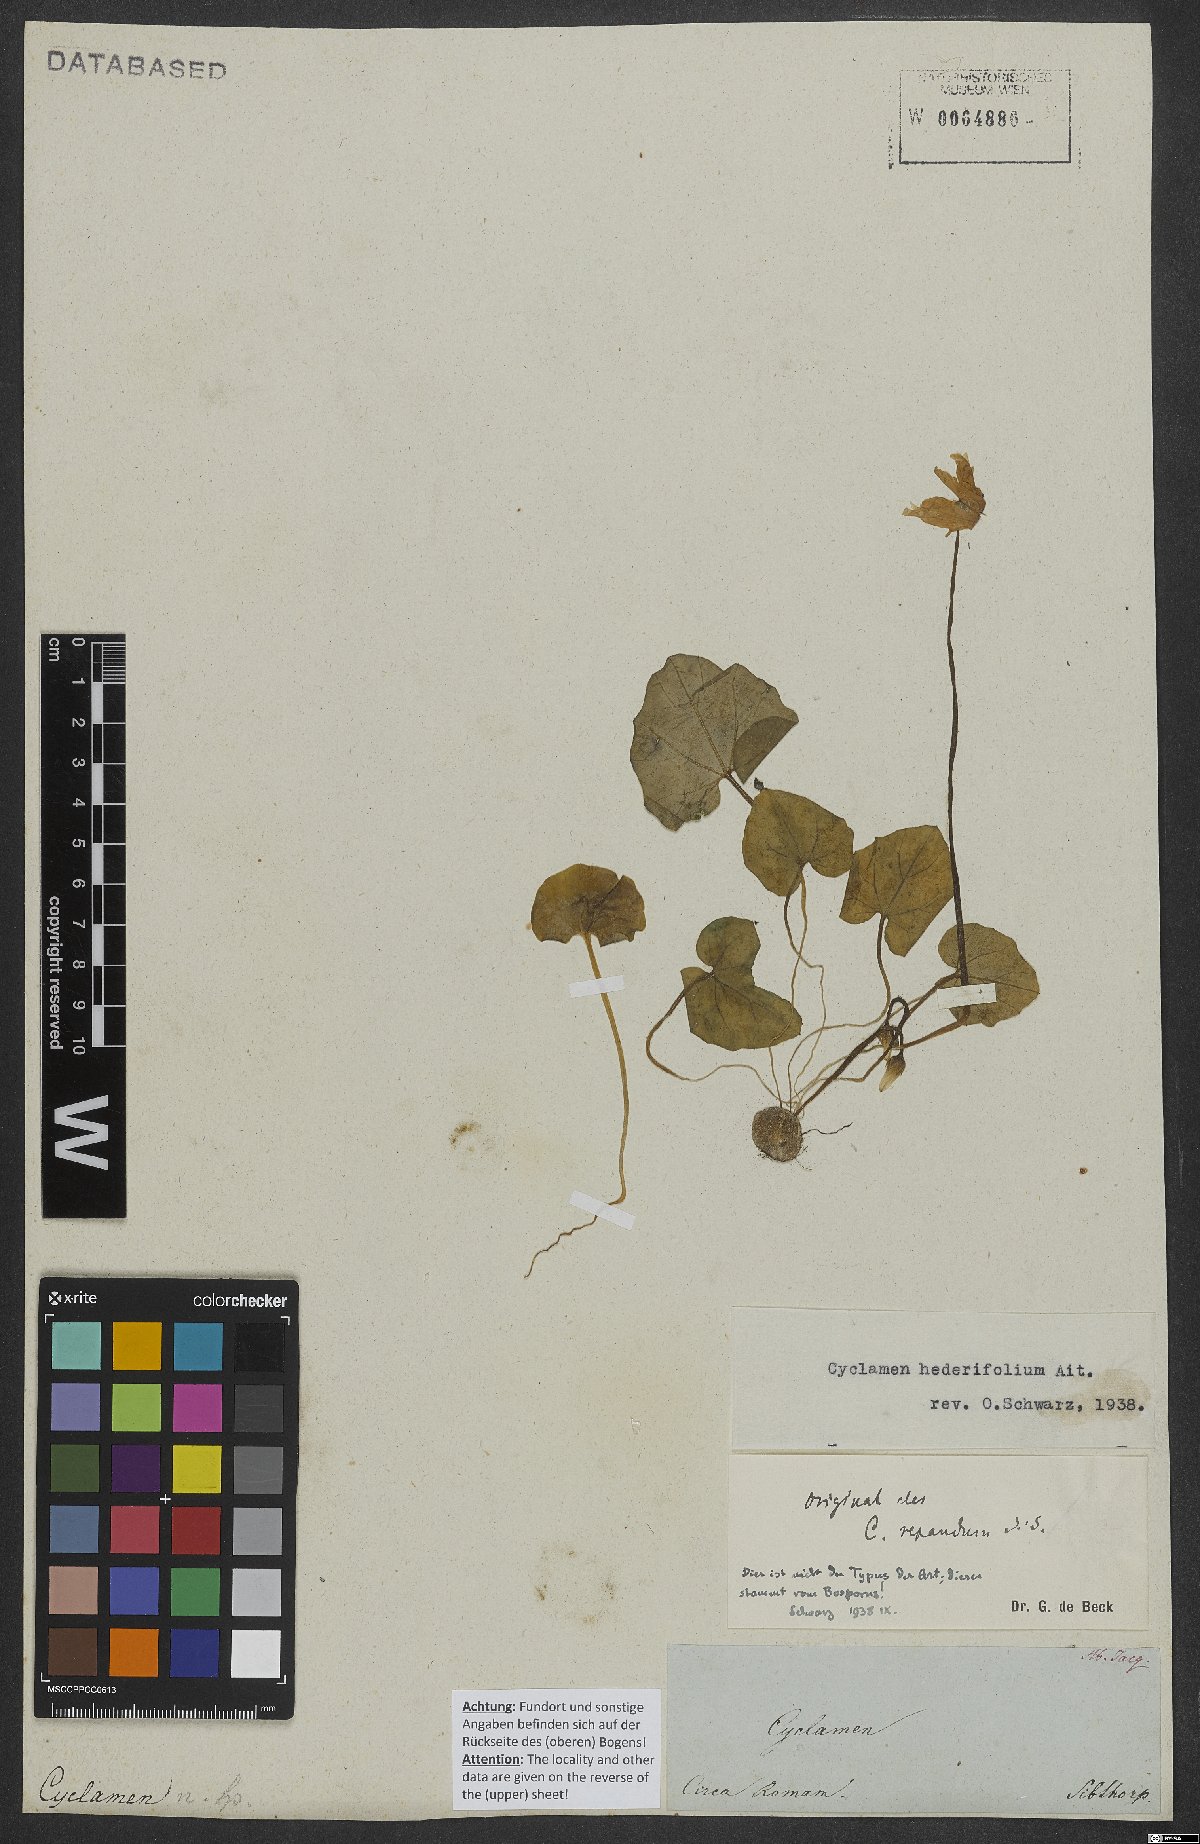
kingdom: Plantae
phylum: Tracheophyta
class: Magnoliopsida
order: Ericales
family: Primulaceae
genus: Cyclamen
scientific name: Cyclamen hederifolium
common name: Sowbread
